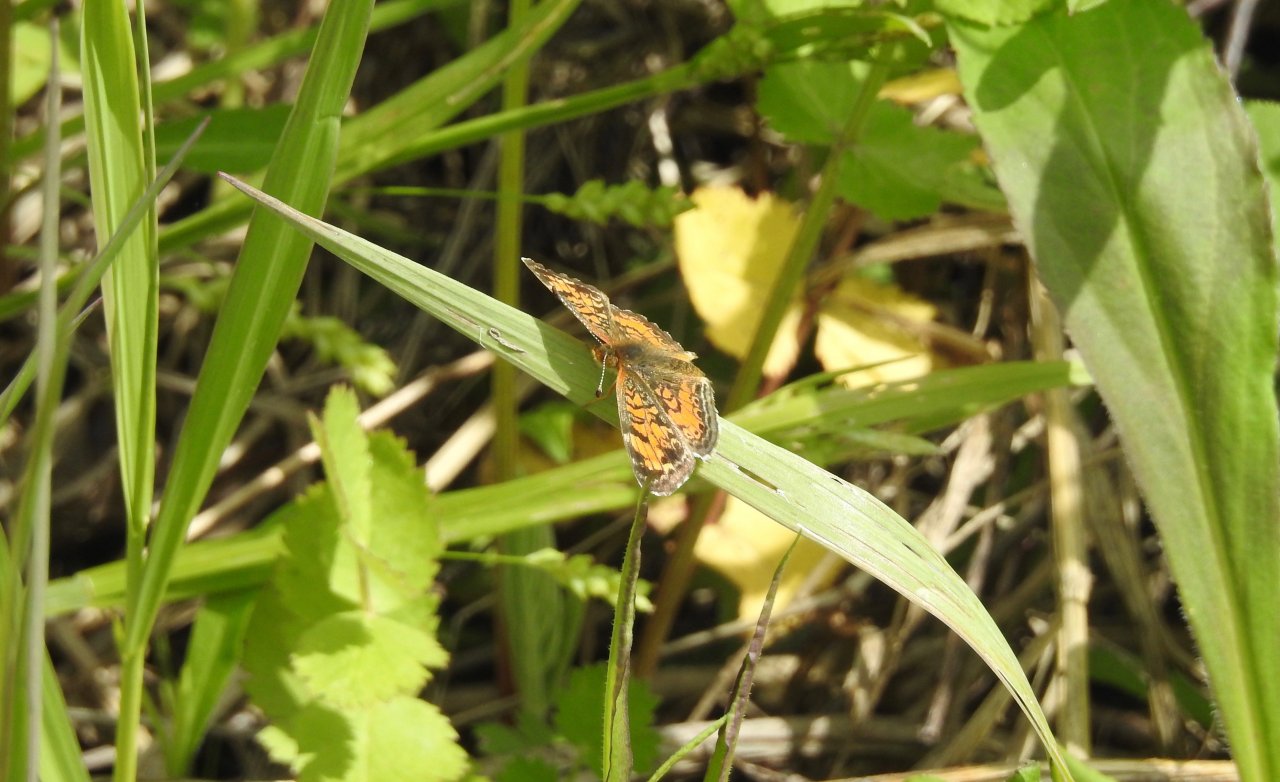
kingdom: Animalia
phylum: Arthropoda
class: Insecta
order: Lepidoptera
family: Nymphalidae
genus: Phyciodes
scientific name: Phyciodes tharos
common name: Pearl Crescent
